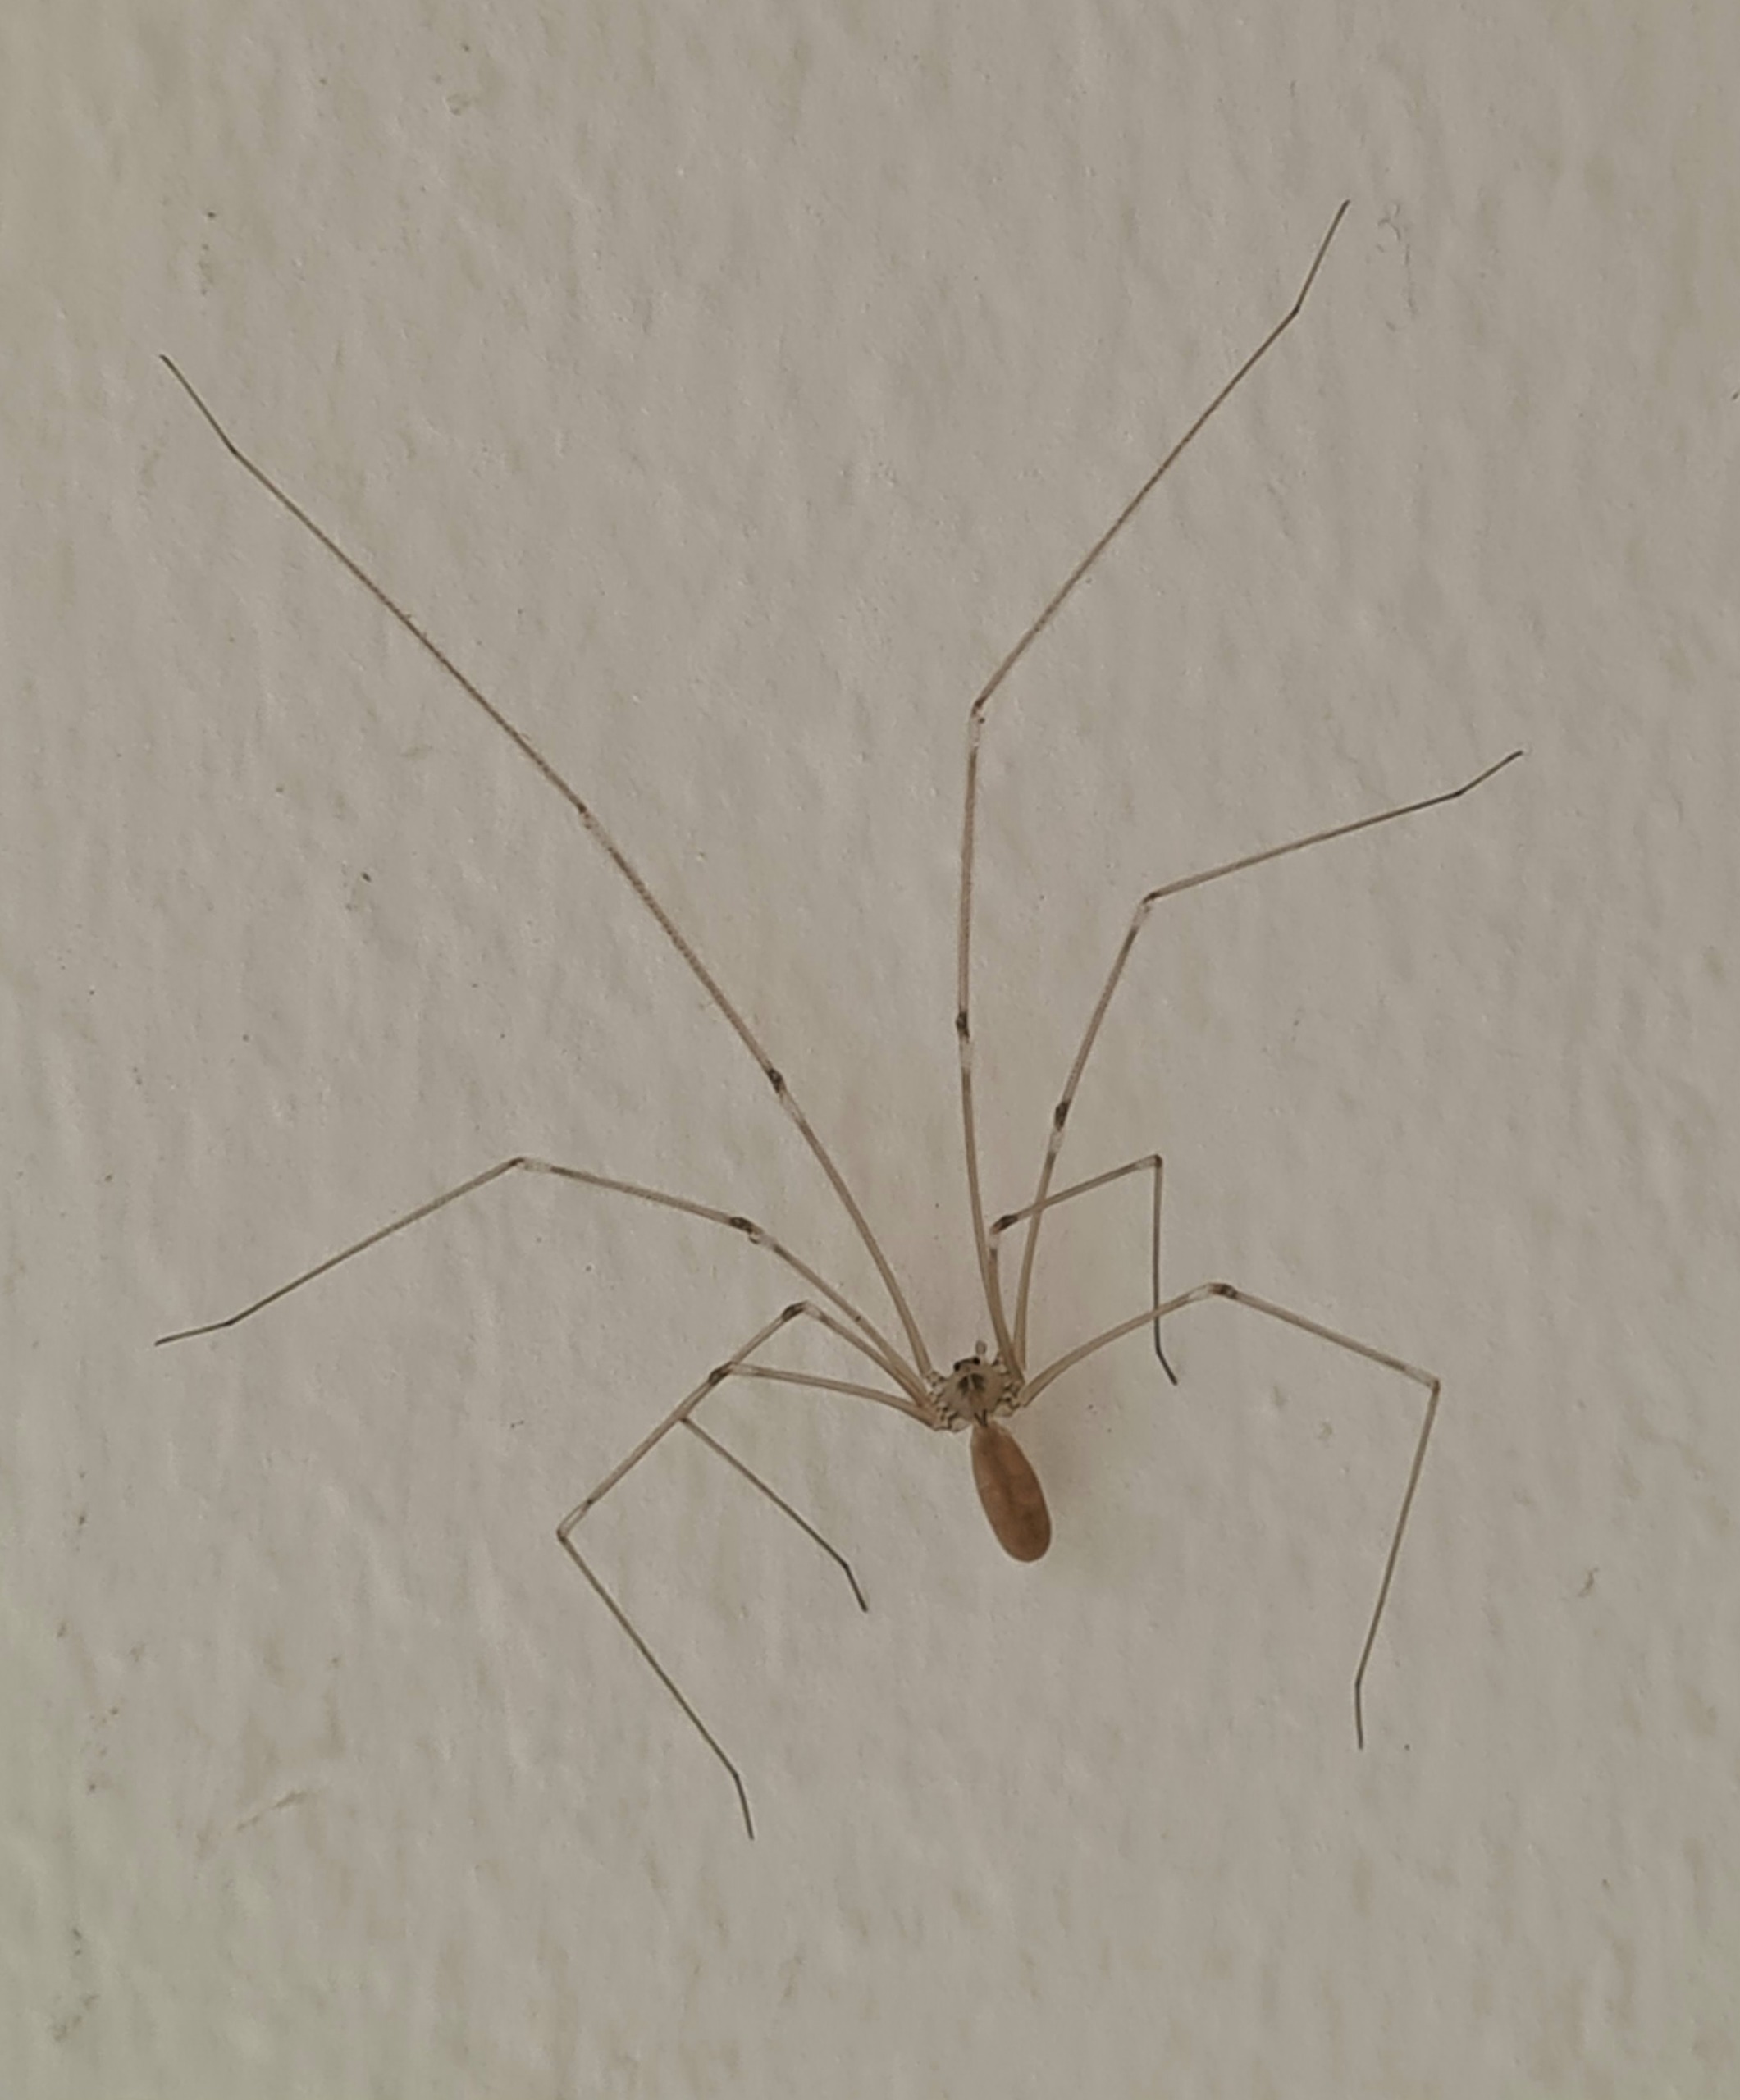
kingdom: Animalia
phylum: Arthropoda
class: Arachnida
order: Araneae
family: Pholcidae
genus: Pholcus
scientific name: Pholcus phalangioides
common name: Mejeredderkop
